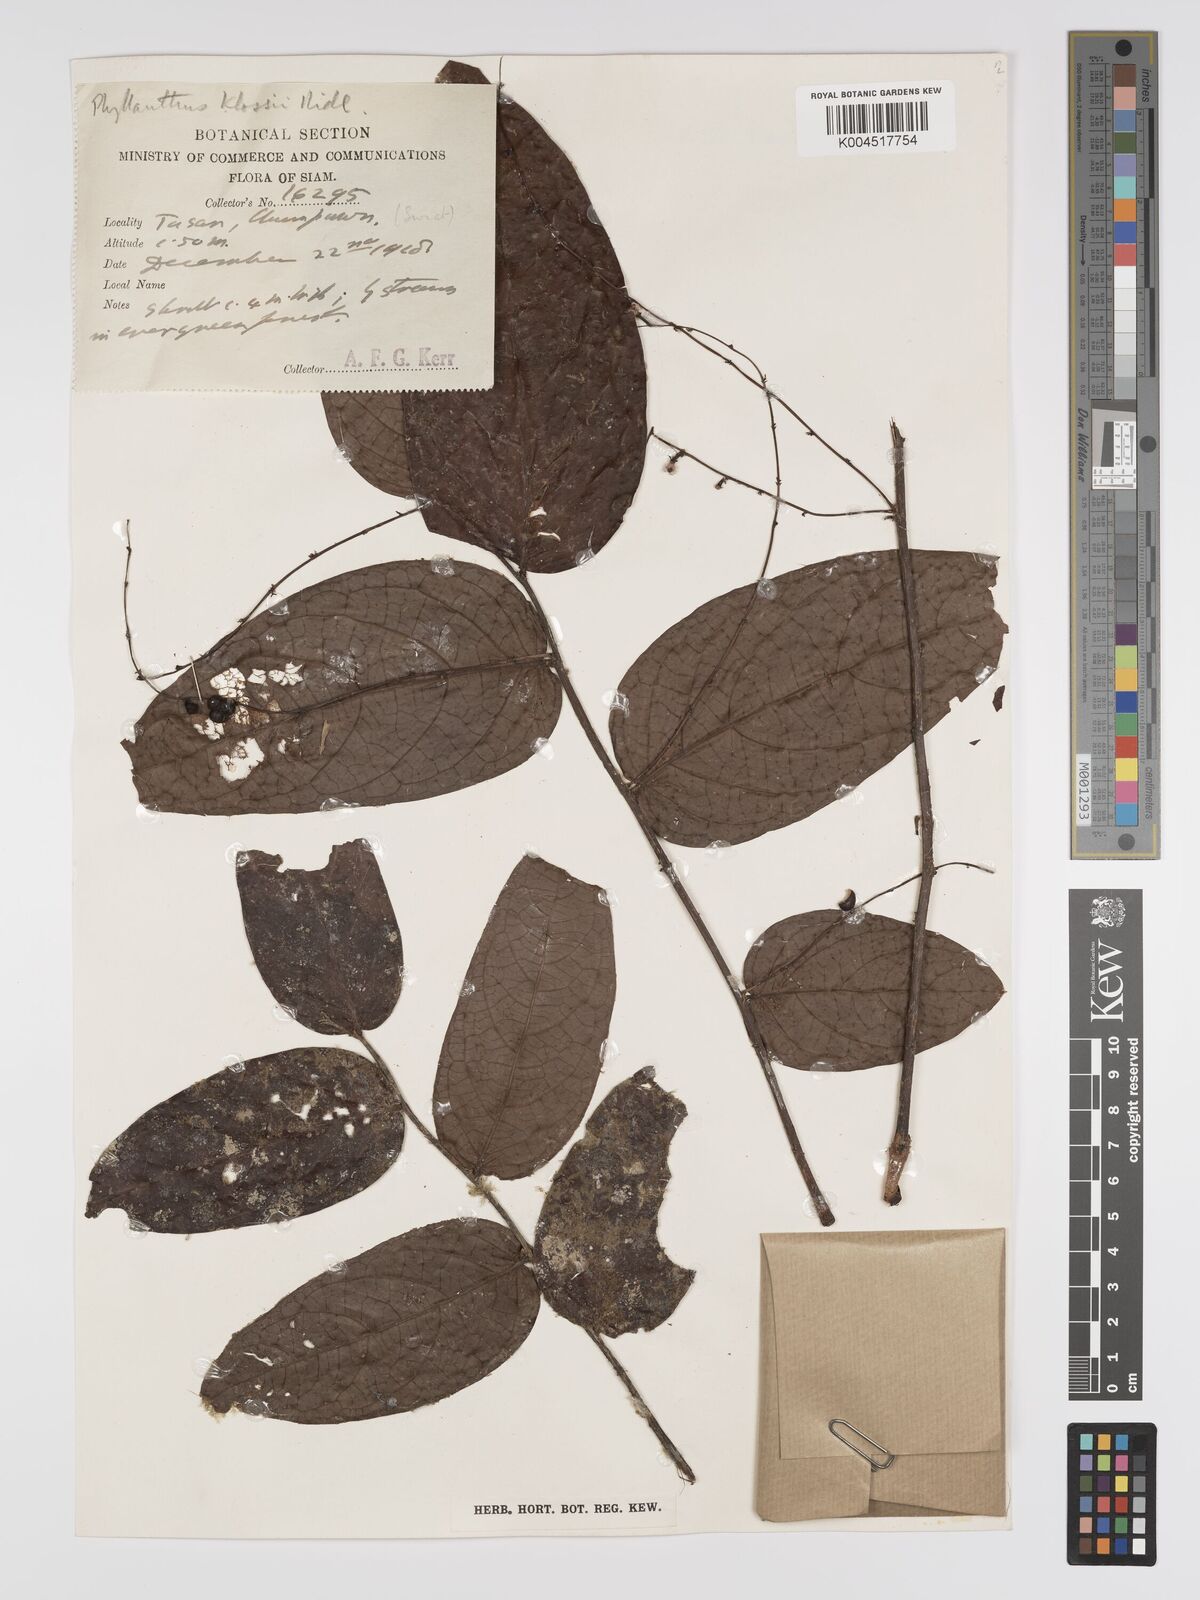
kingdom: Plantae
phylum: Tracheophyta
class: Magnoliopsida
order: Malpighiales
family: Phyllanthaceae
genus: Phyllanthus
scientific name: Phyllanthus pachyphyllus
